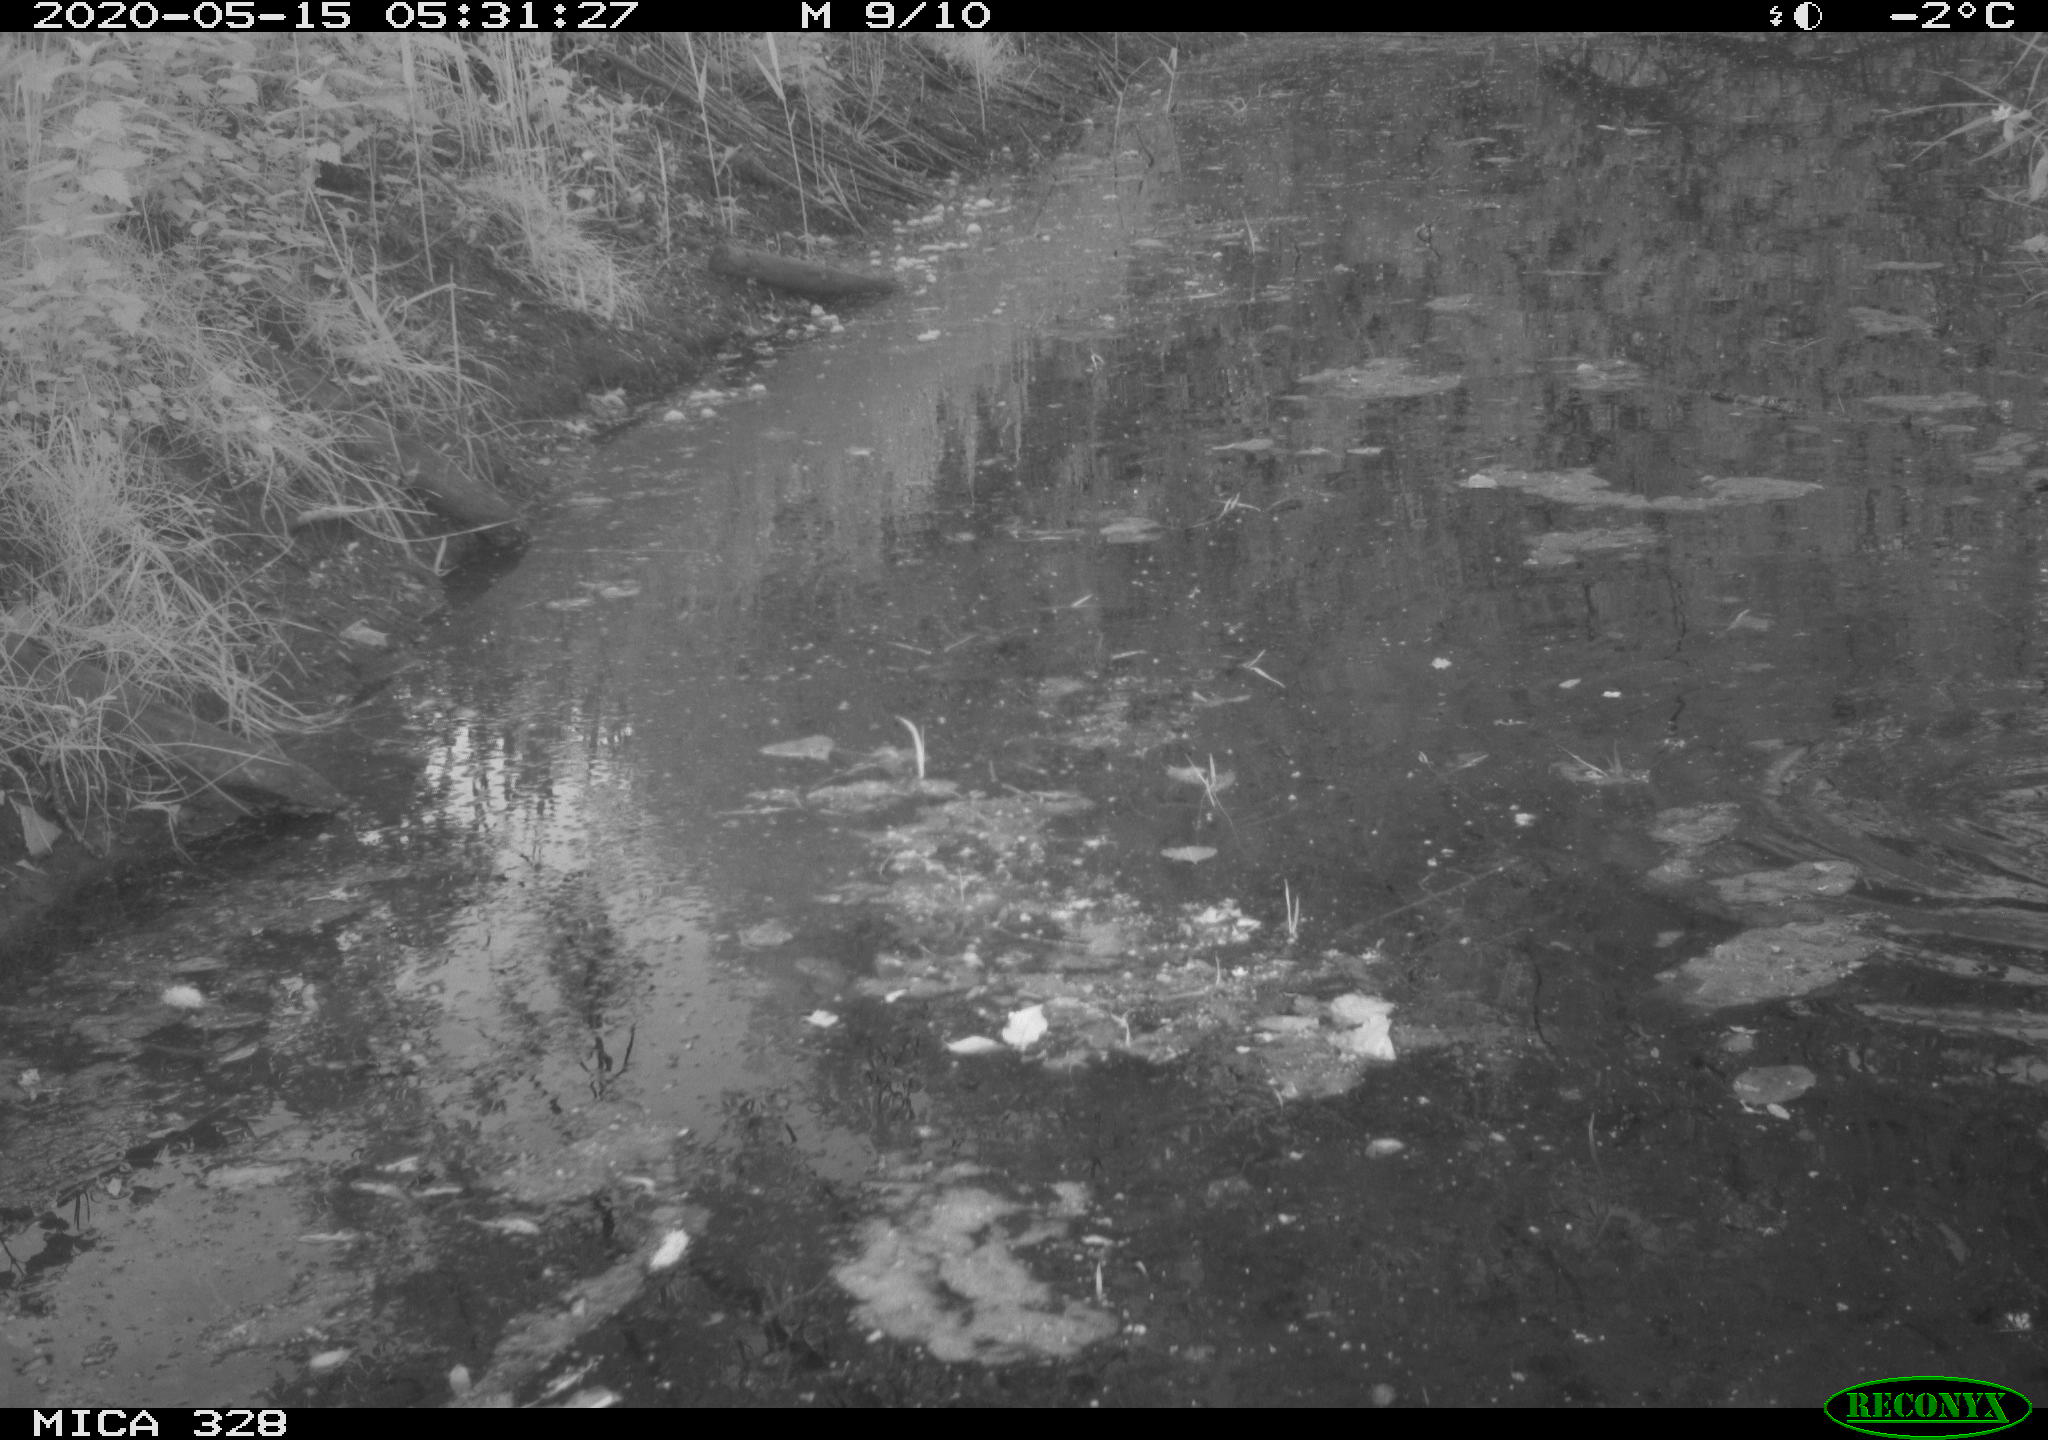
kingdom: Animalia
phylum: Chordata
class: Aves
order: Anseriformes
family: Anatidae
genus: Anas
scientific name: Anas platyrhynchos
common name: Mallard
